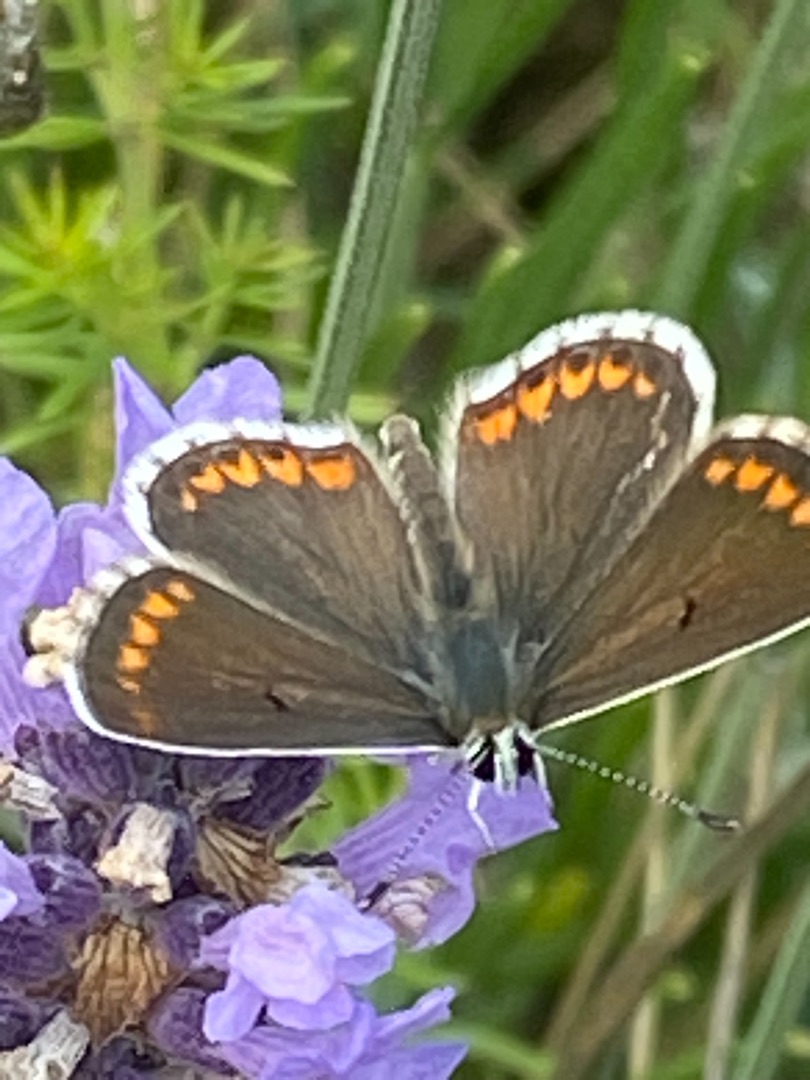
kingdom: Animalia
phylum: Arthropoda
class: Insecta
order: Lepidoptera
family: Lycaenidae
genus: Aricia
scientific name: Aricia agestis
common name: Rødplettet blåfugl
